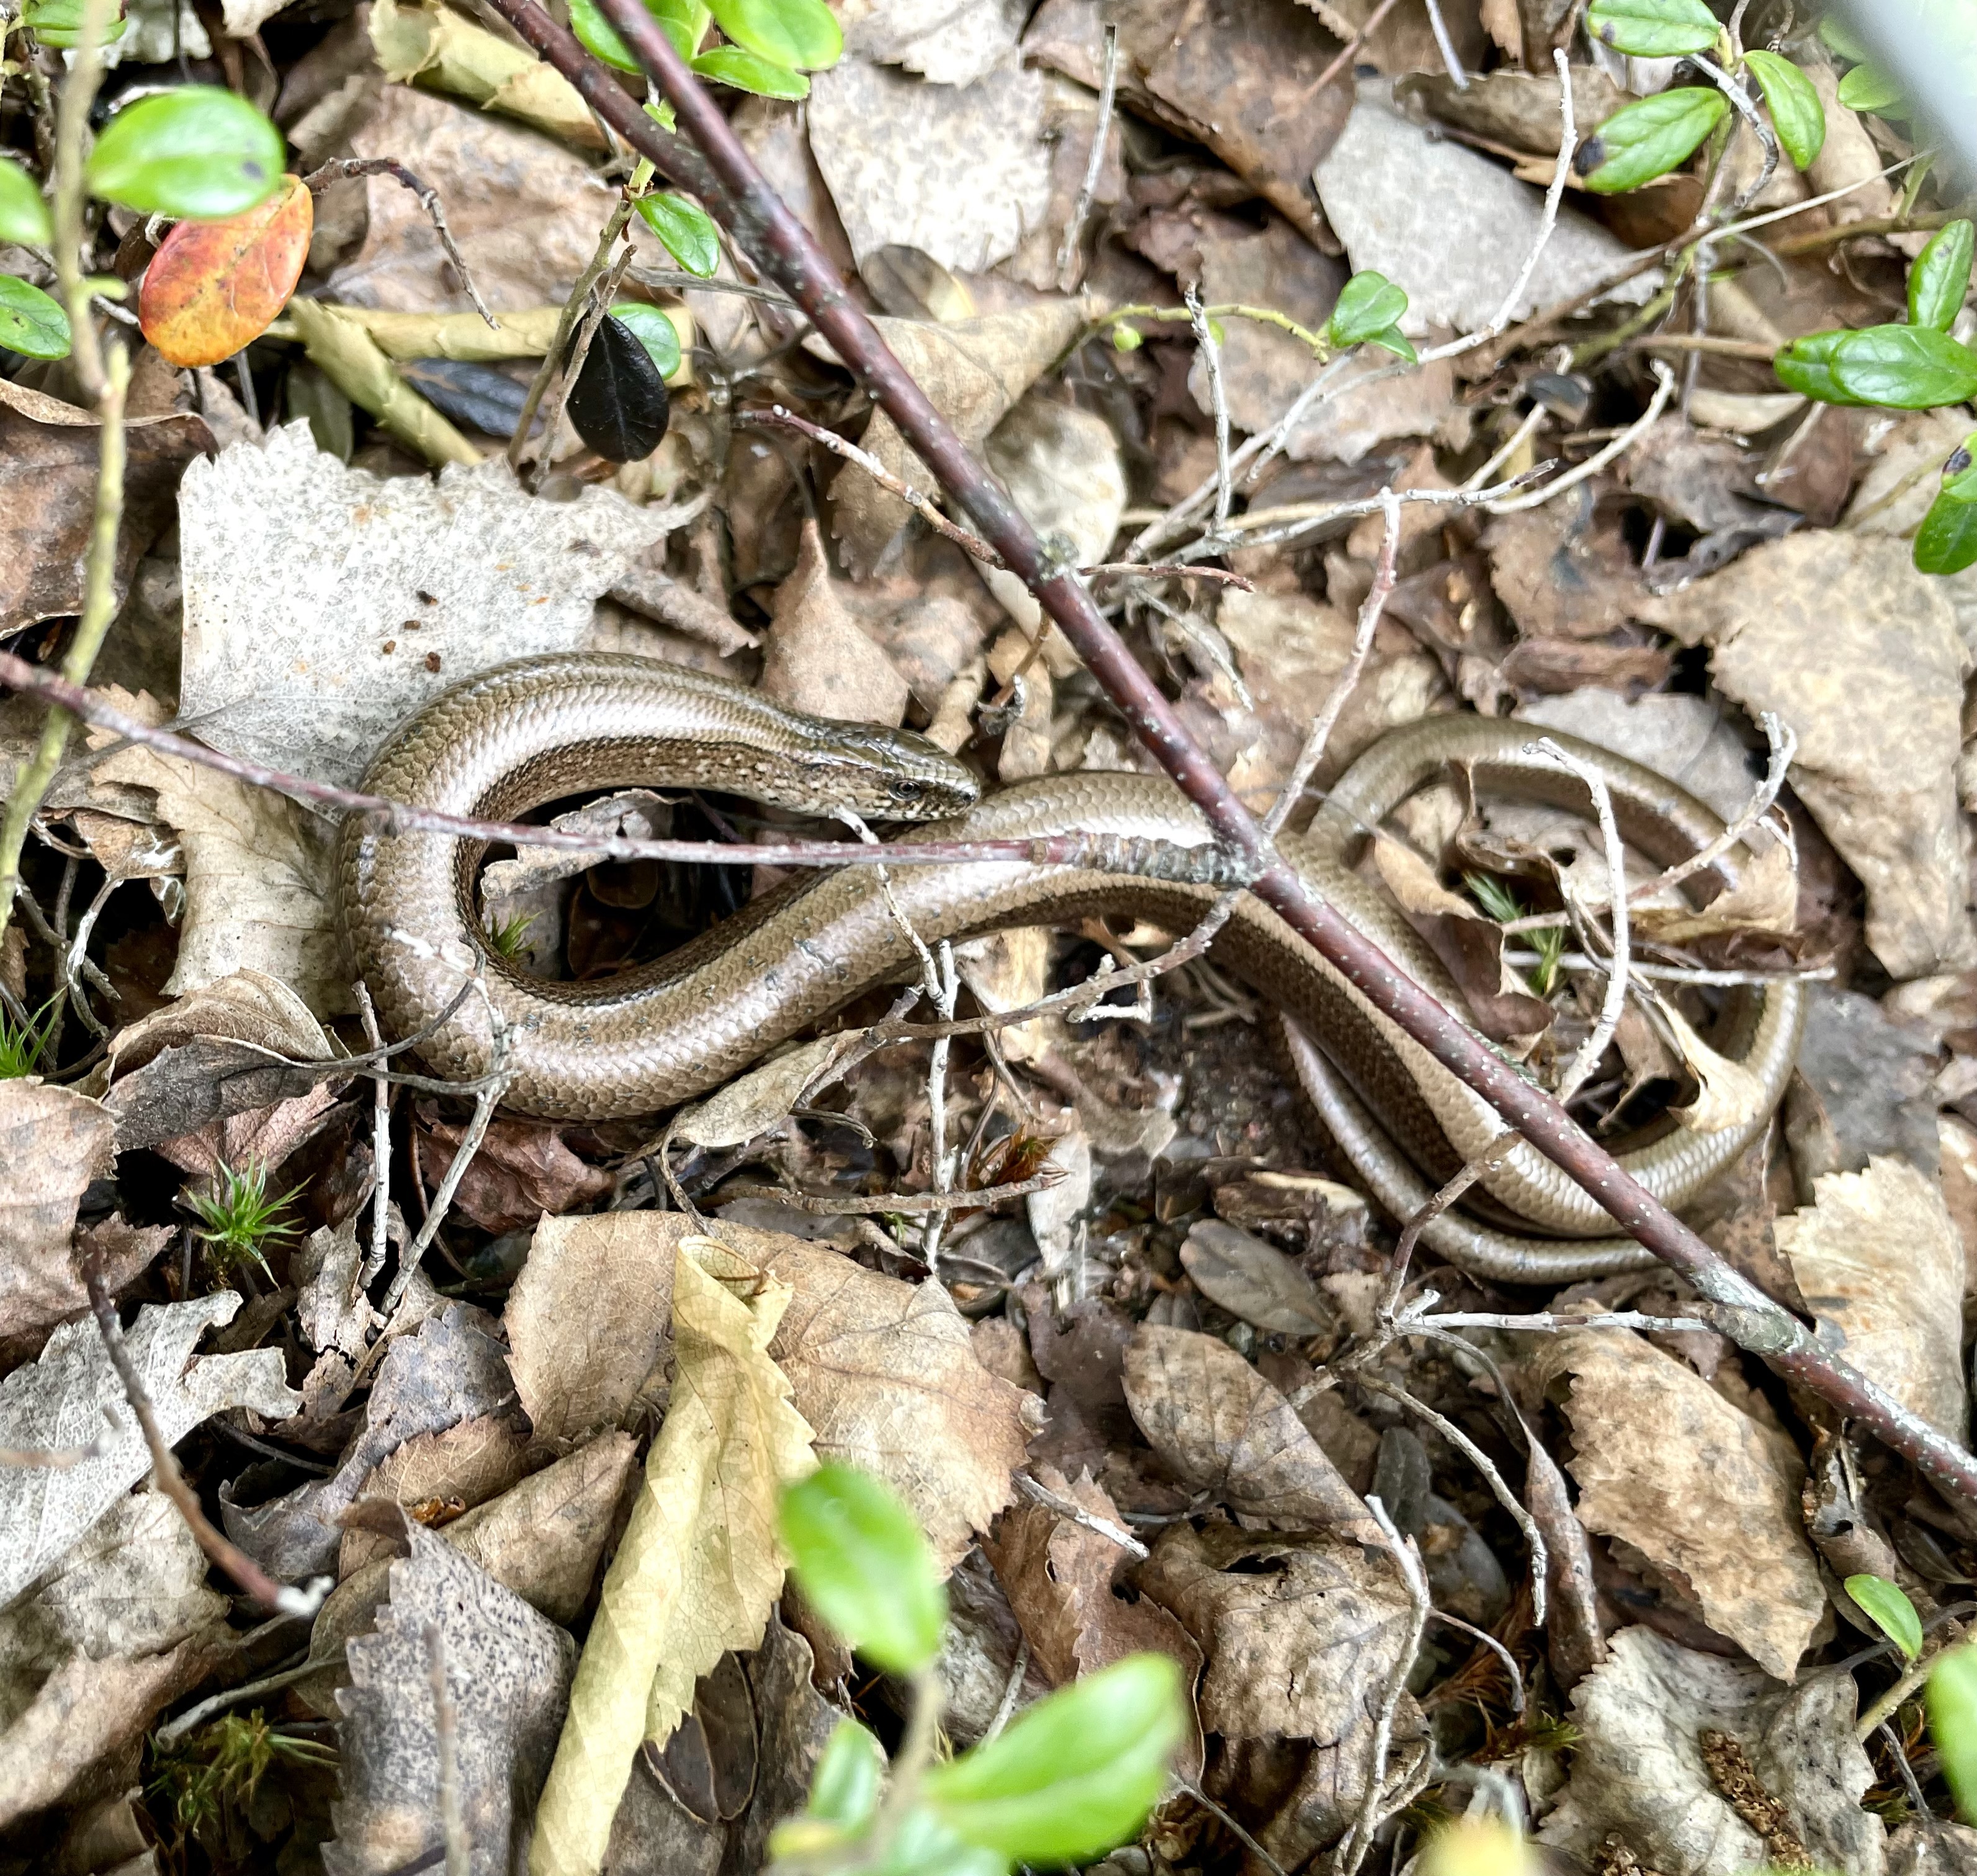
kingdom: Animalia
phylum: Chordata
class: Squamata
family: Anguidae
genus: Anguis
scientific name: Anguis colchica
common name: Slow worm
